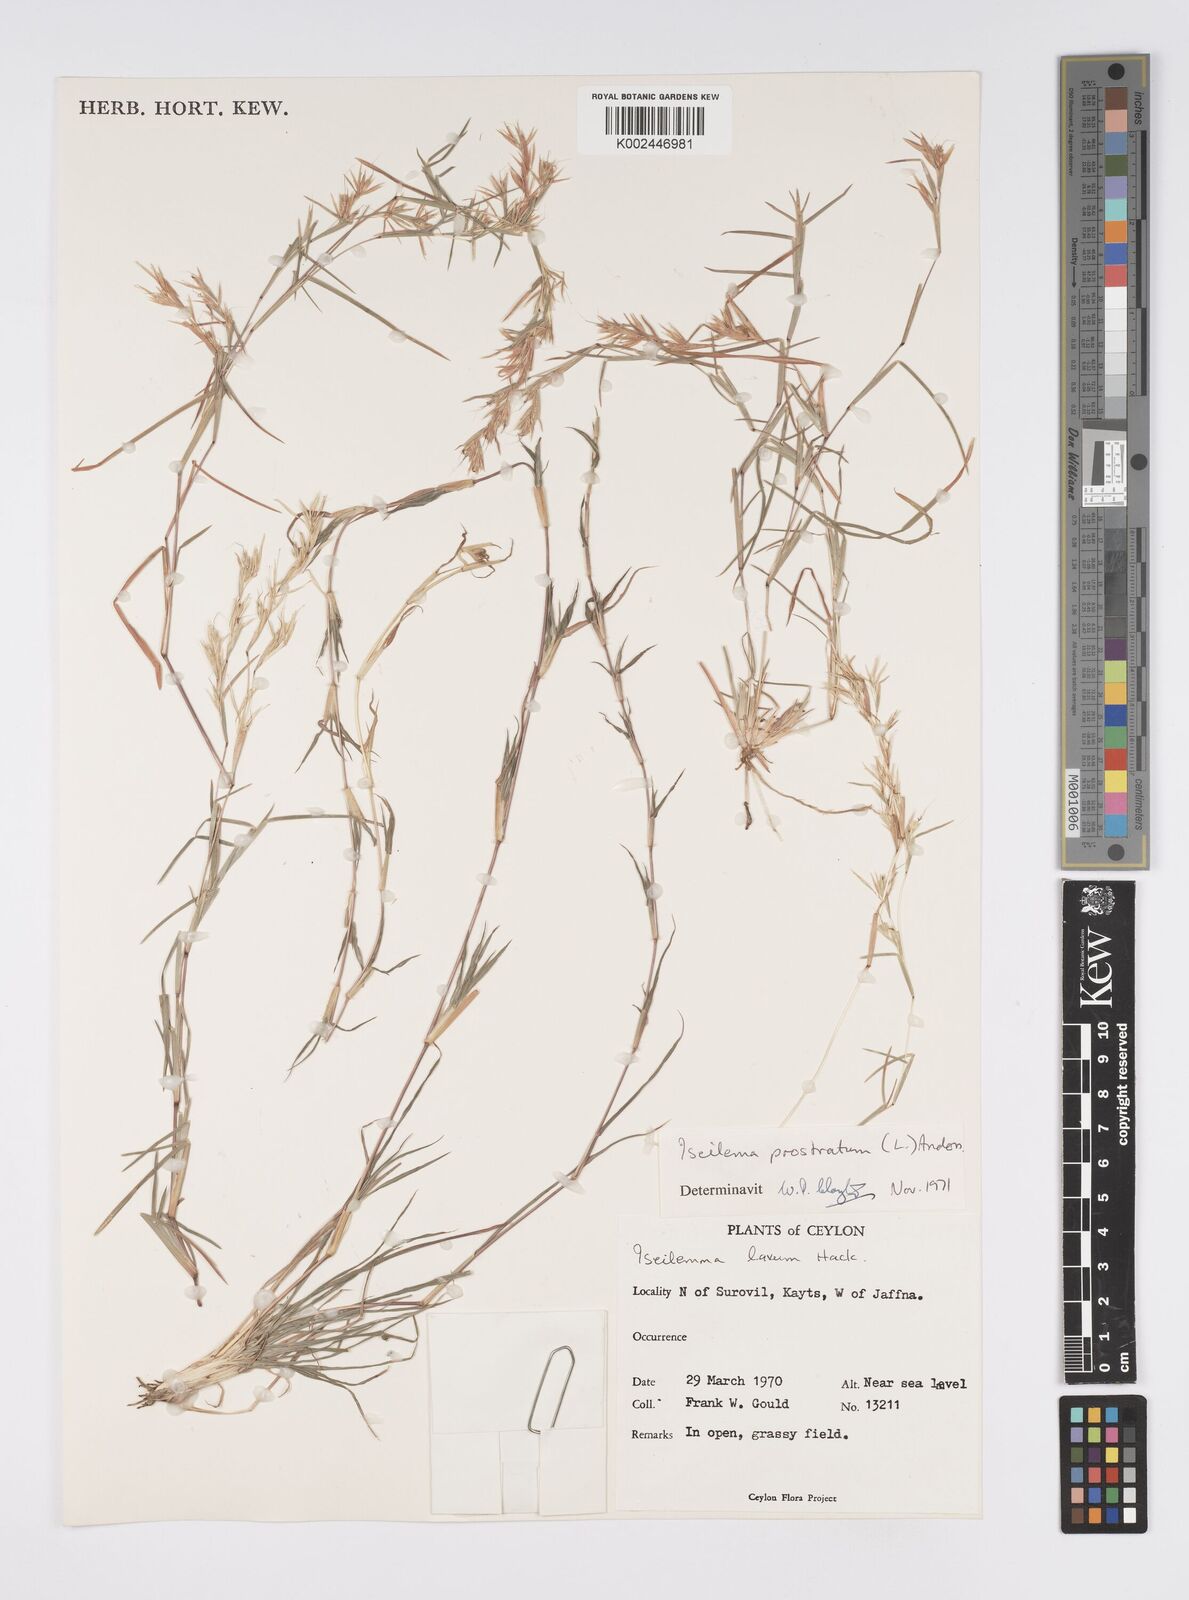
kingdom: Plantae
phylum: Tracheophyta
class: Liliopsida
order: Poales
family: Poaceae
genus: Iseilema
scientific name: Iseilema prostratum
